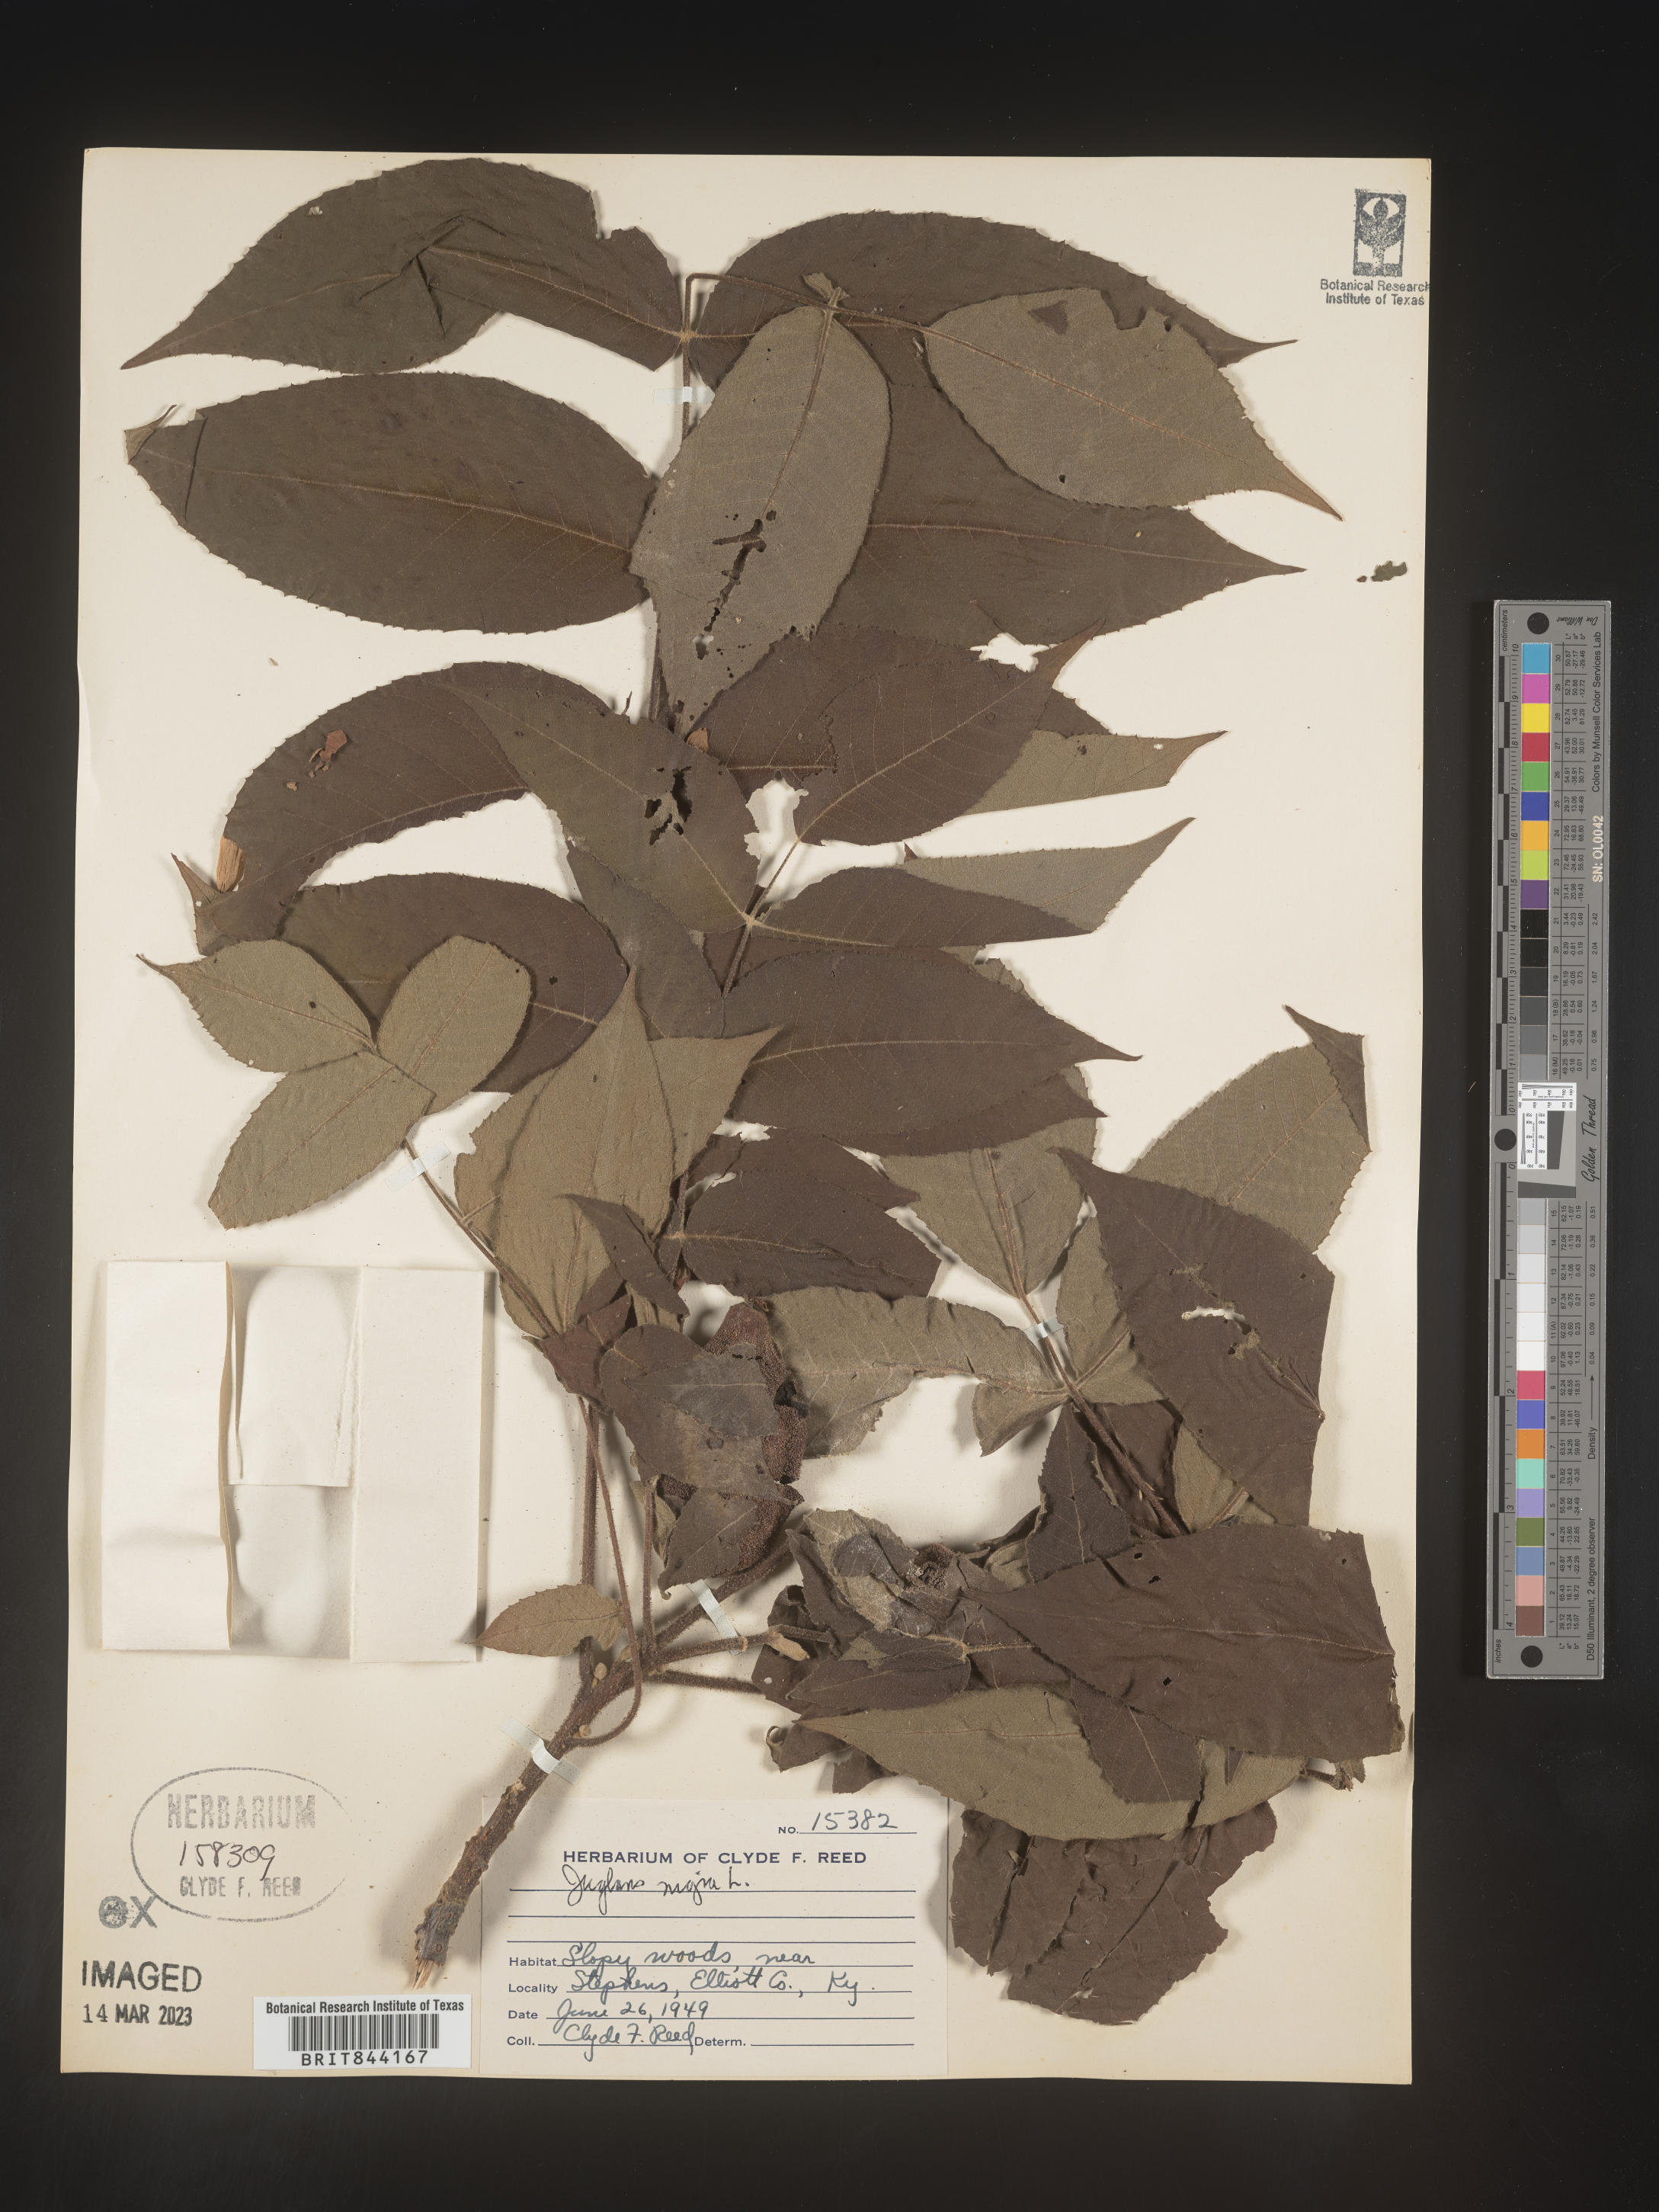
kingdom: Plantae
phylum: Tracheophyta
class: Magnoliopsida
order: Fagales
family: Juglandaceae
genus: Juglans
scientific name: Juglans nigra
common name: Black walnut
